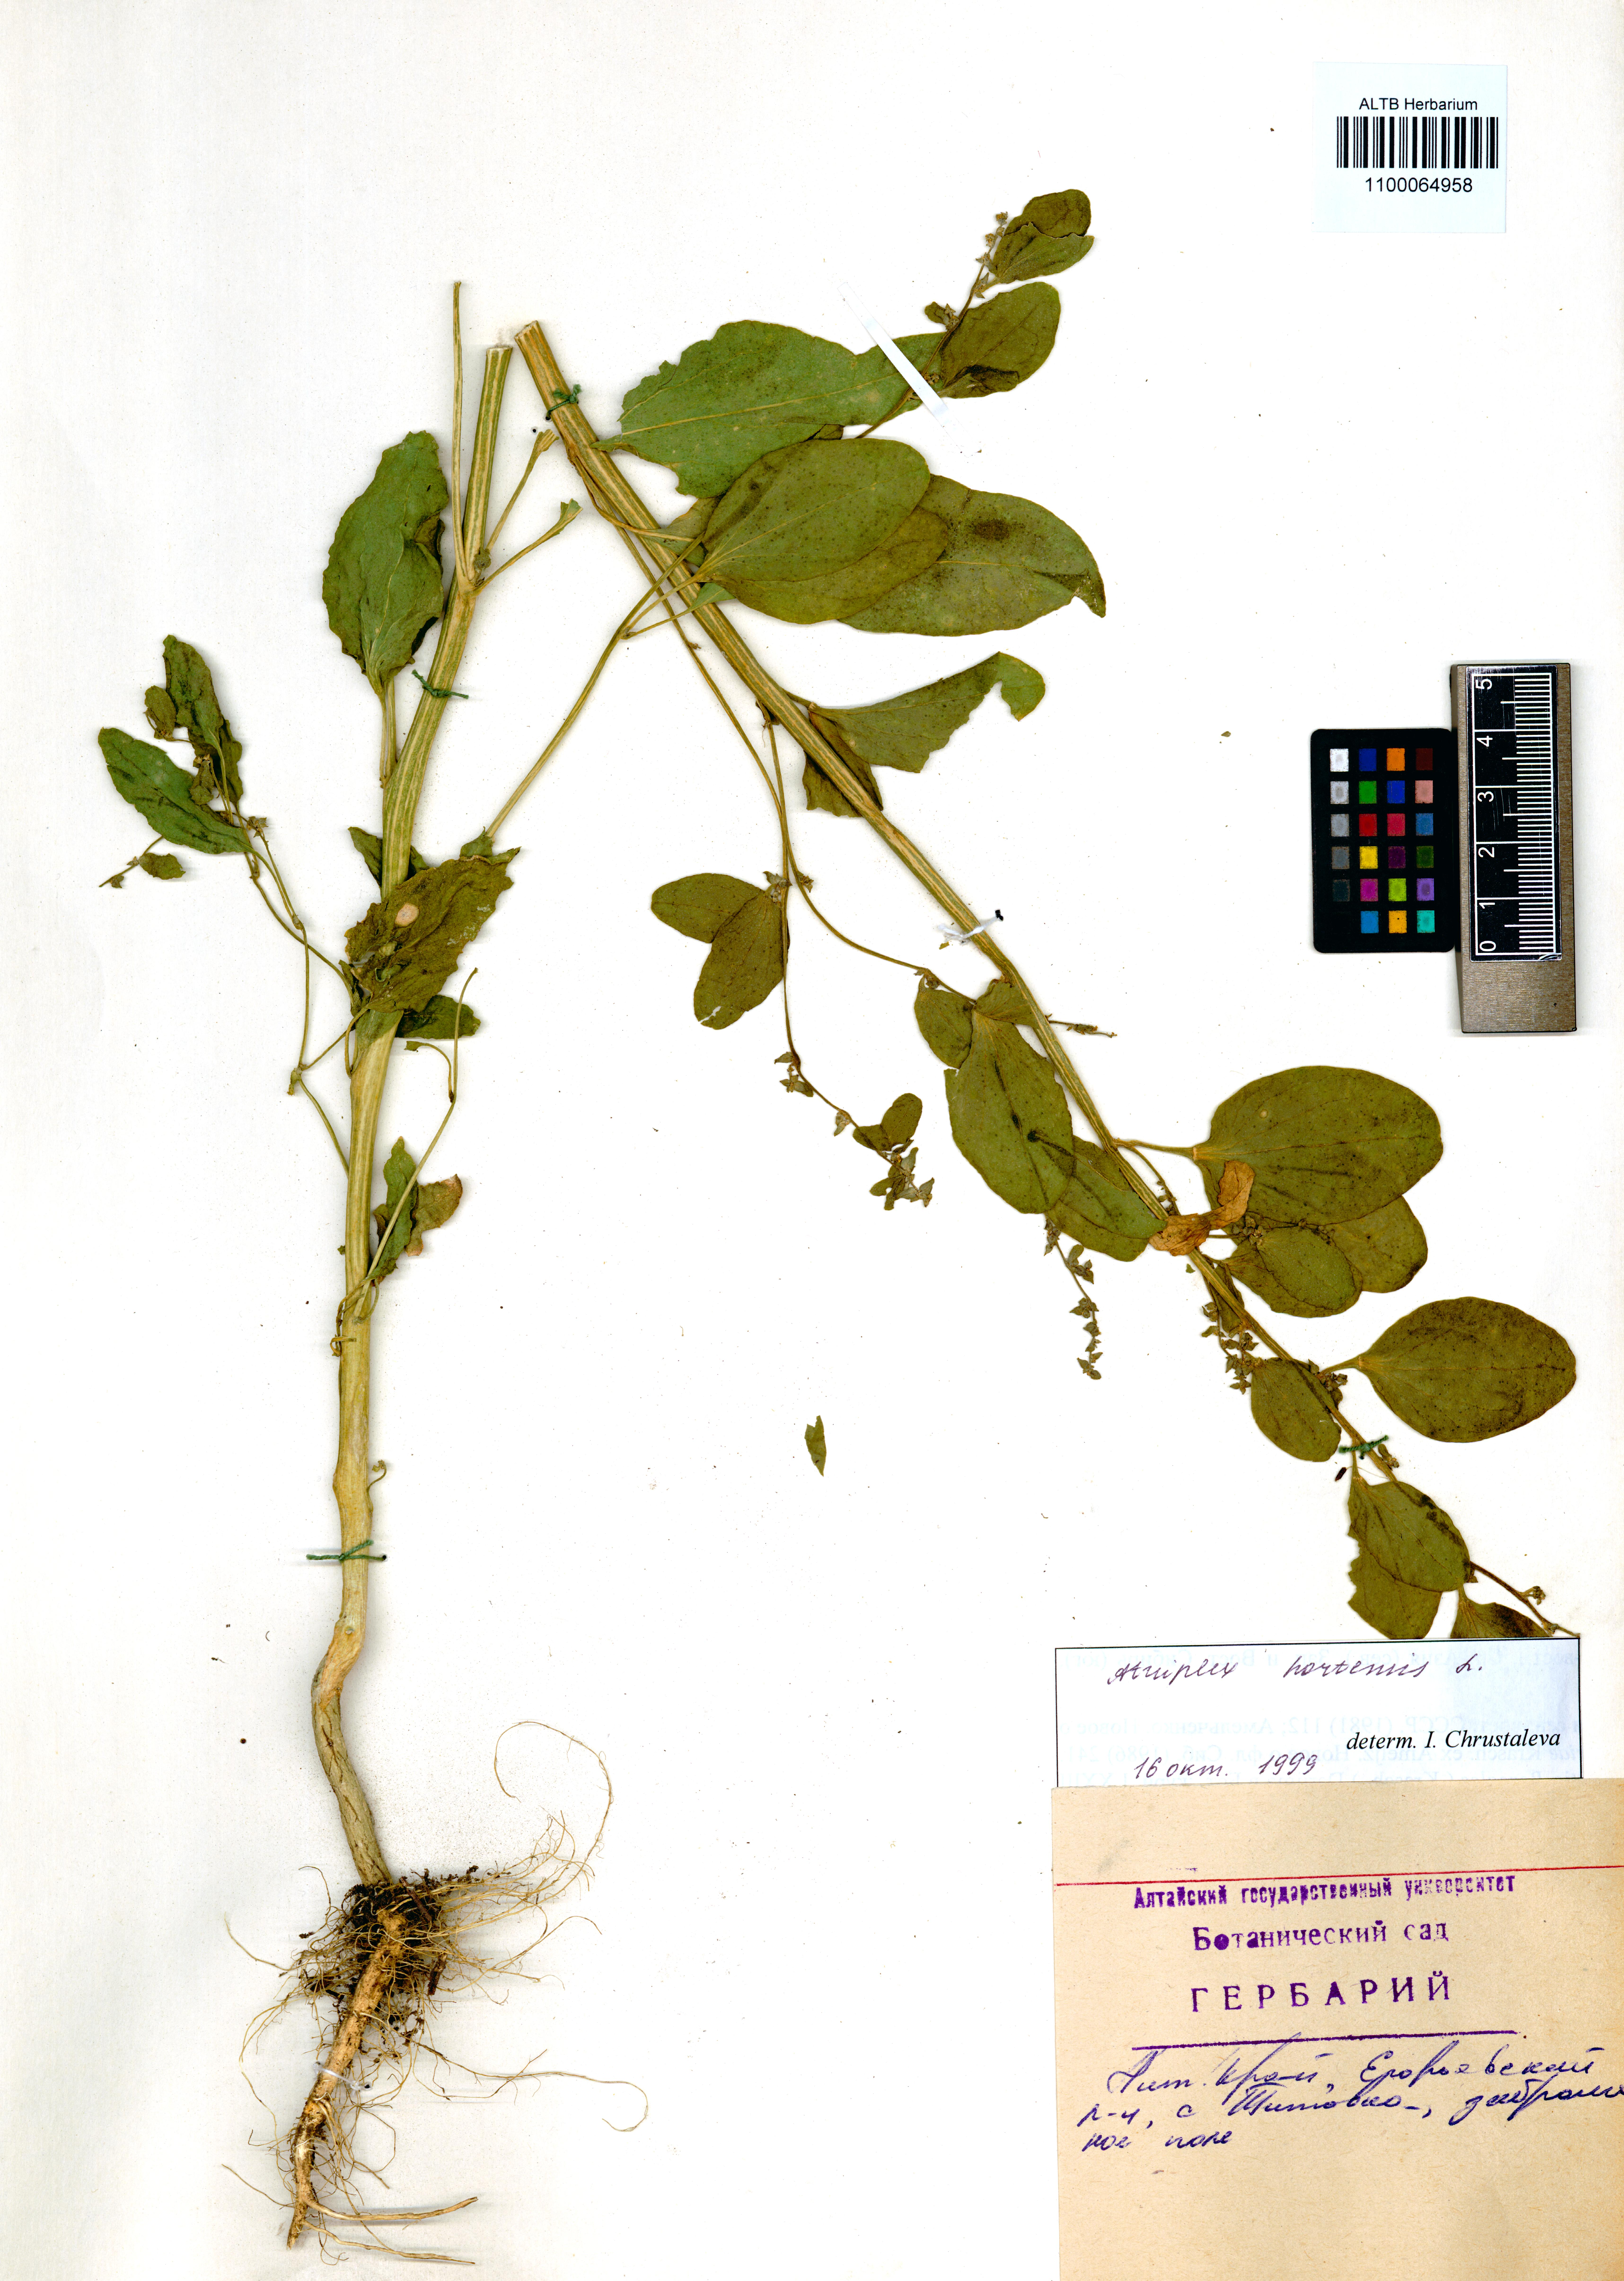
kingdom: Plantae
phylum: Tracheophyta
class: Magnoliopsida
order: Caryophyllales
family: Amaranthaceae
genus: Atriplex
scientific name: Atriplex hortensis
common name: Garden orache
